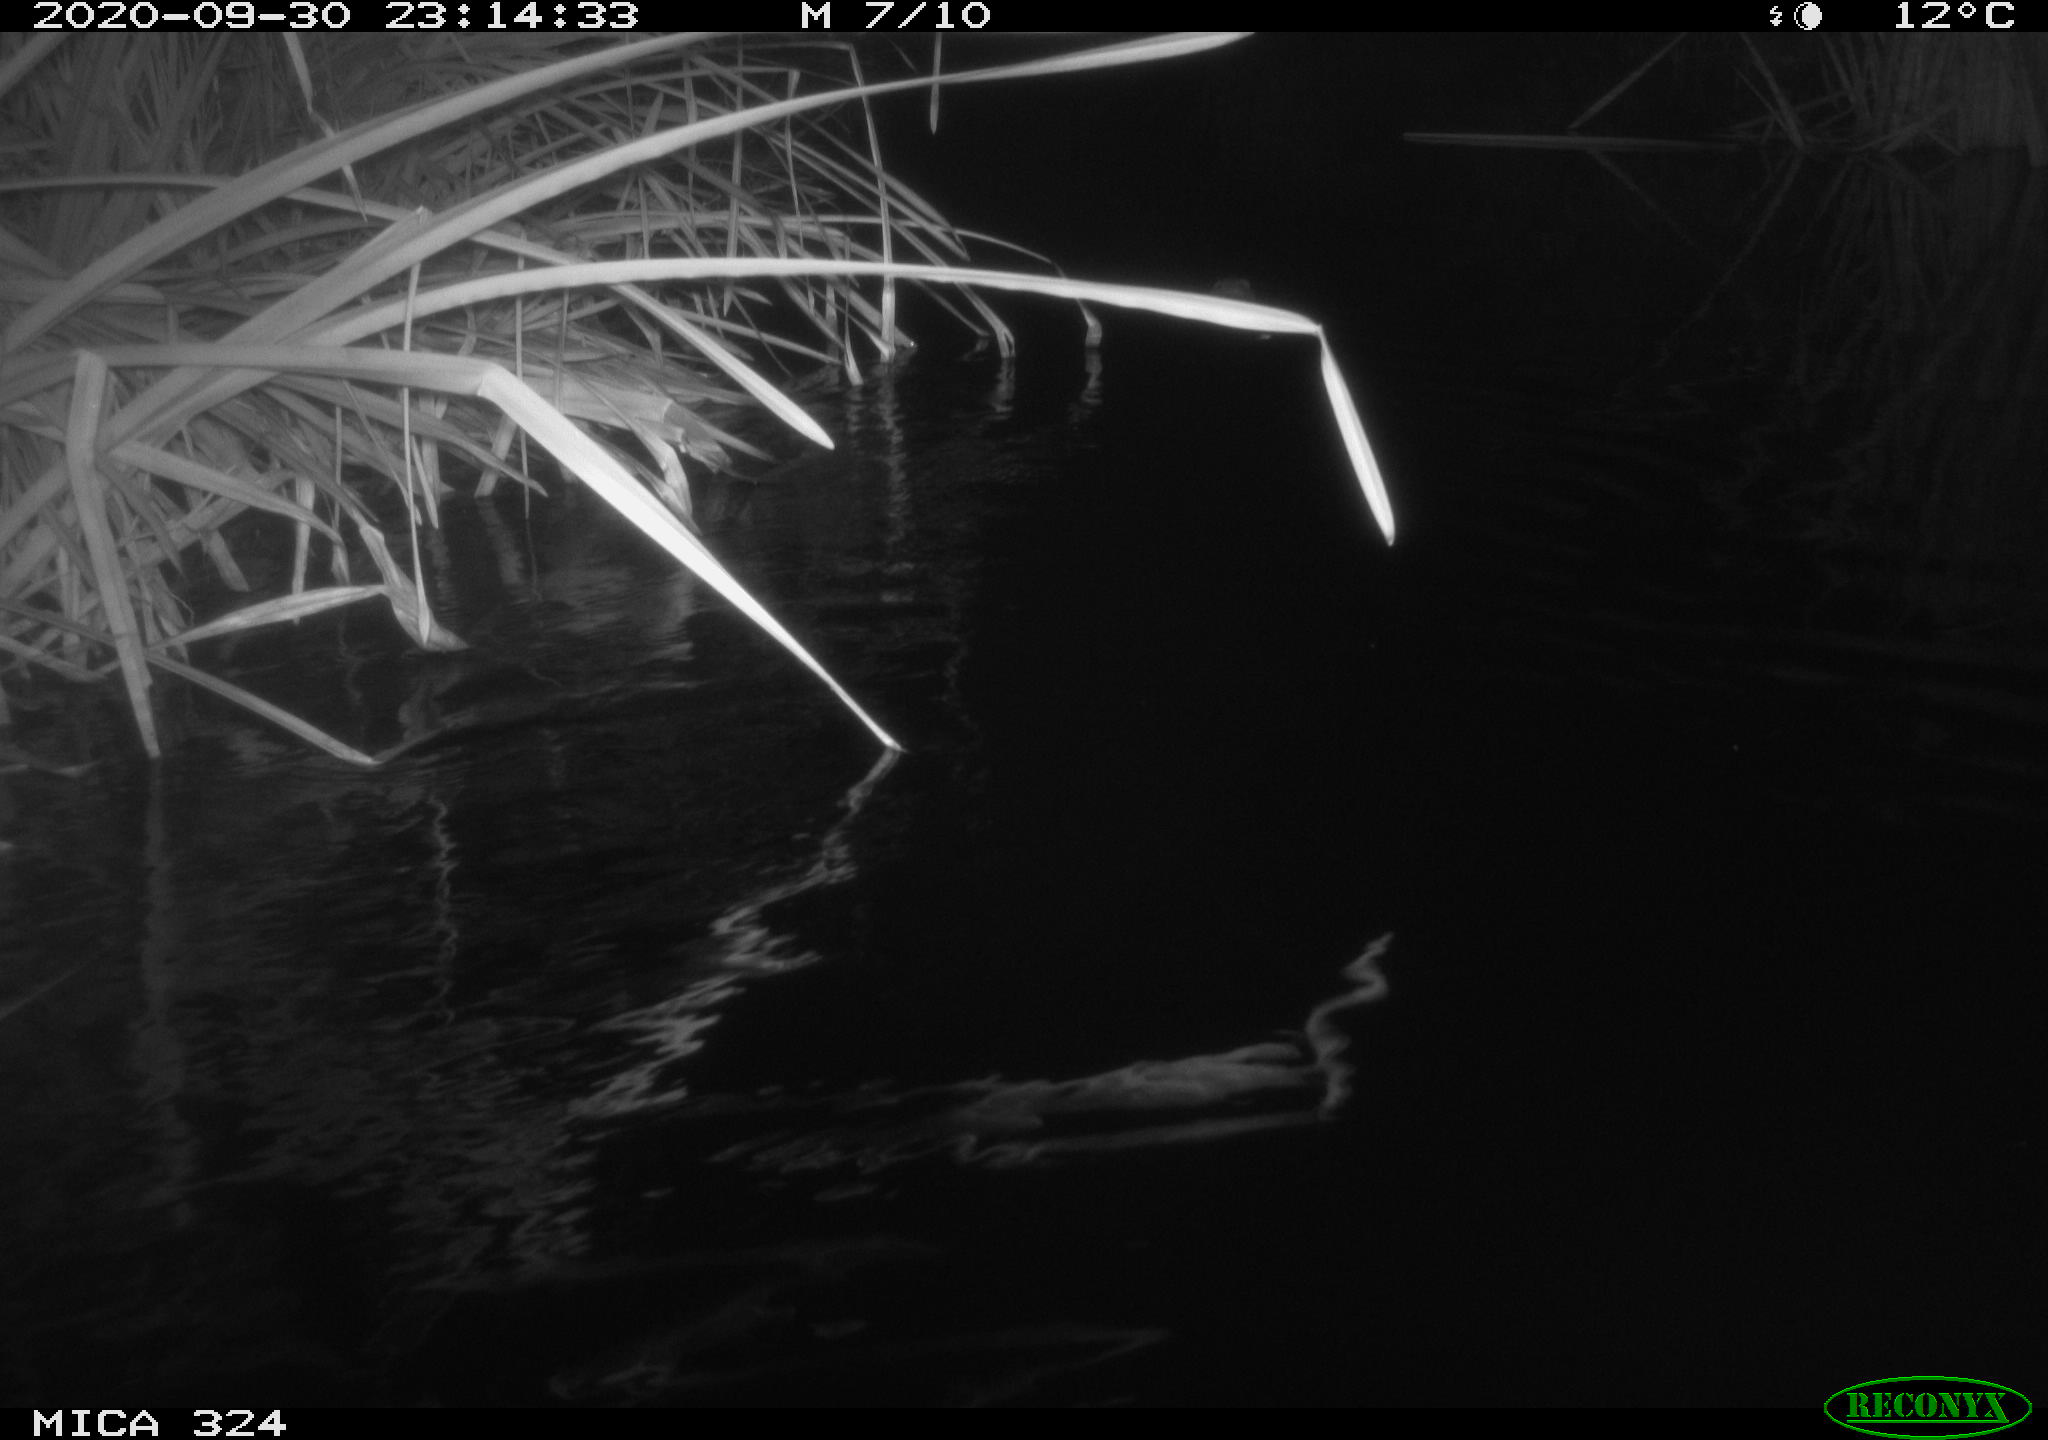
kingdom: Animalia
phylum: Chordata
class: Mammalia
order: Rodentia
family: Cricetidae
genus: Ondatra
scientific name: Ondatra zibethicus
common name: Muskrat
